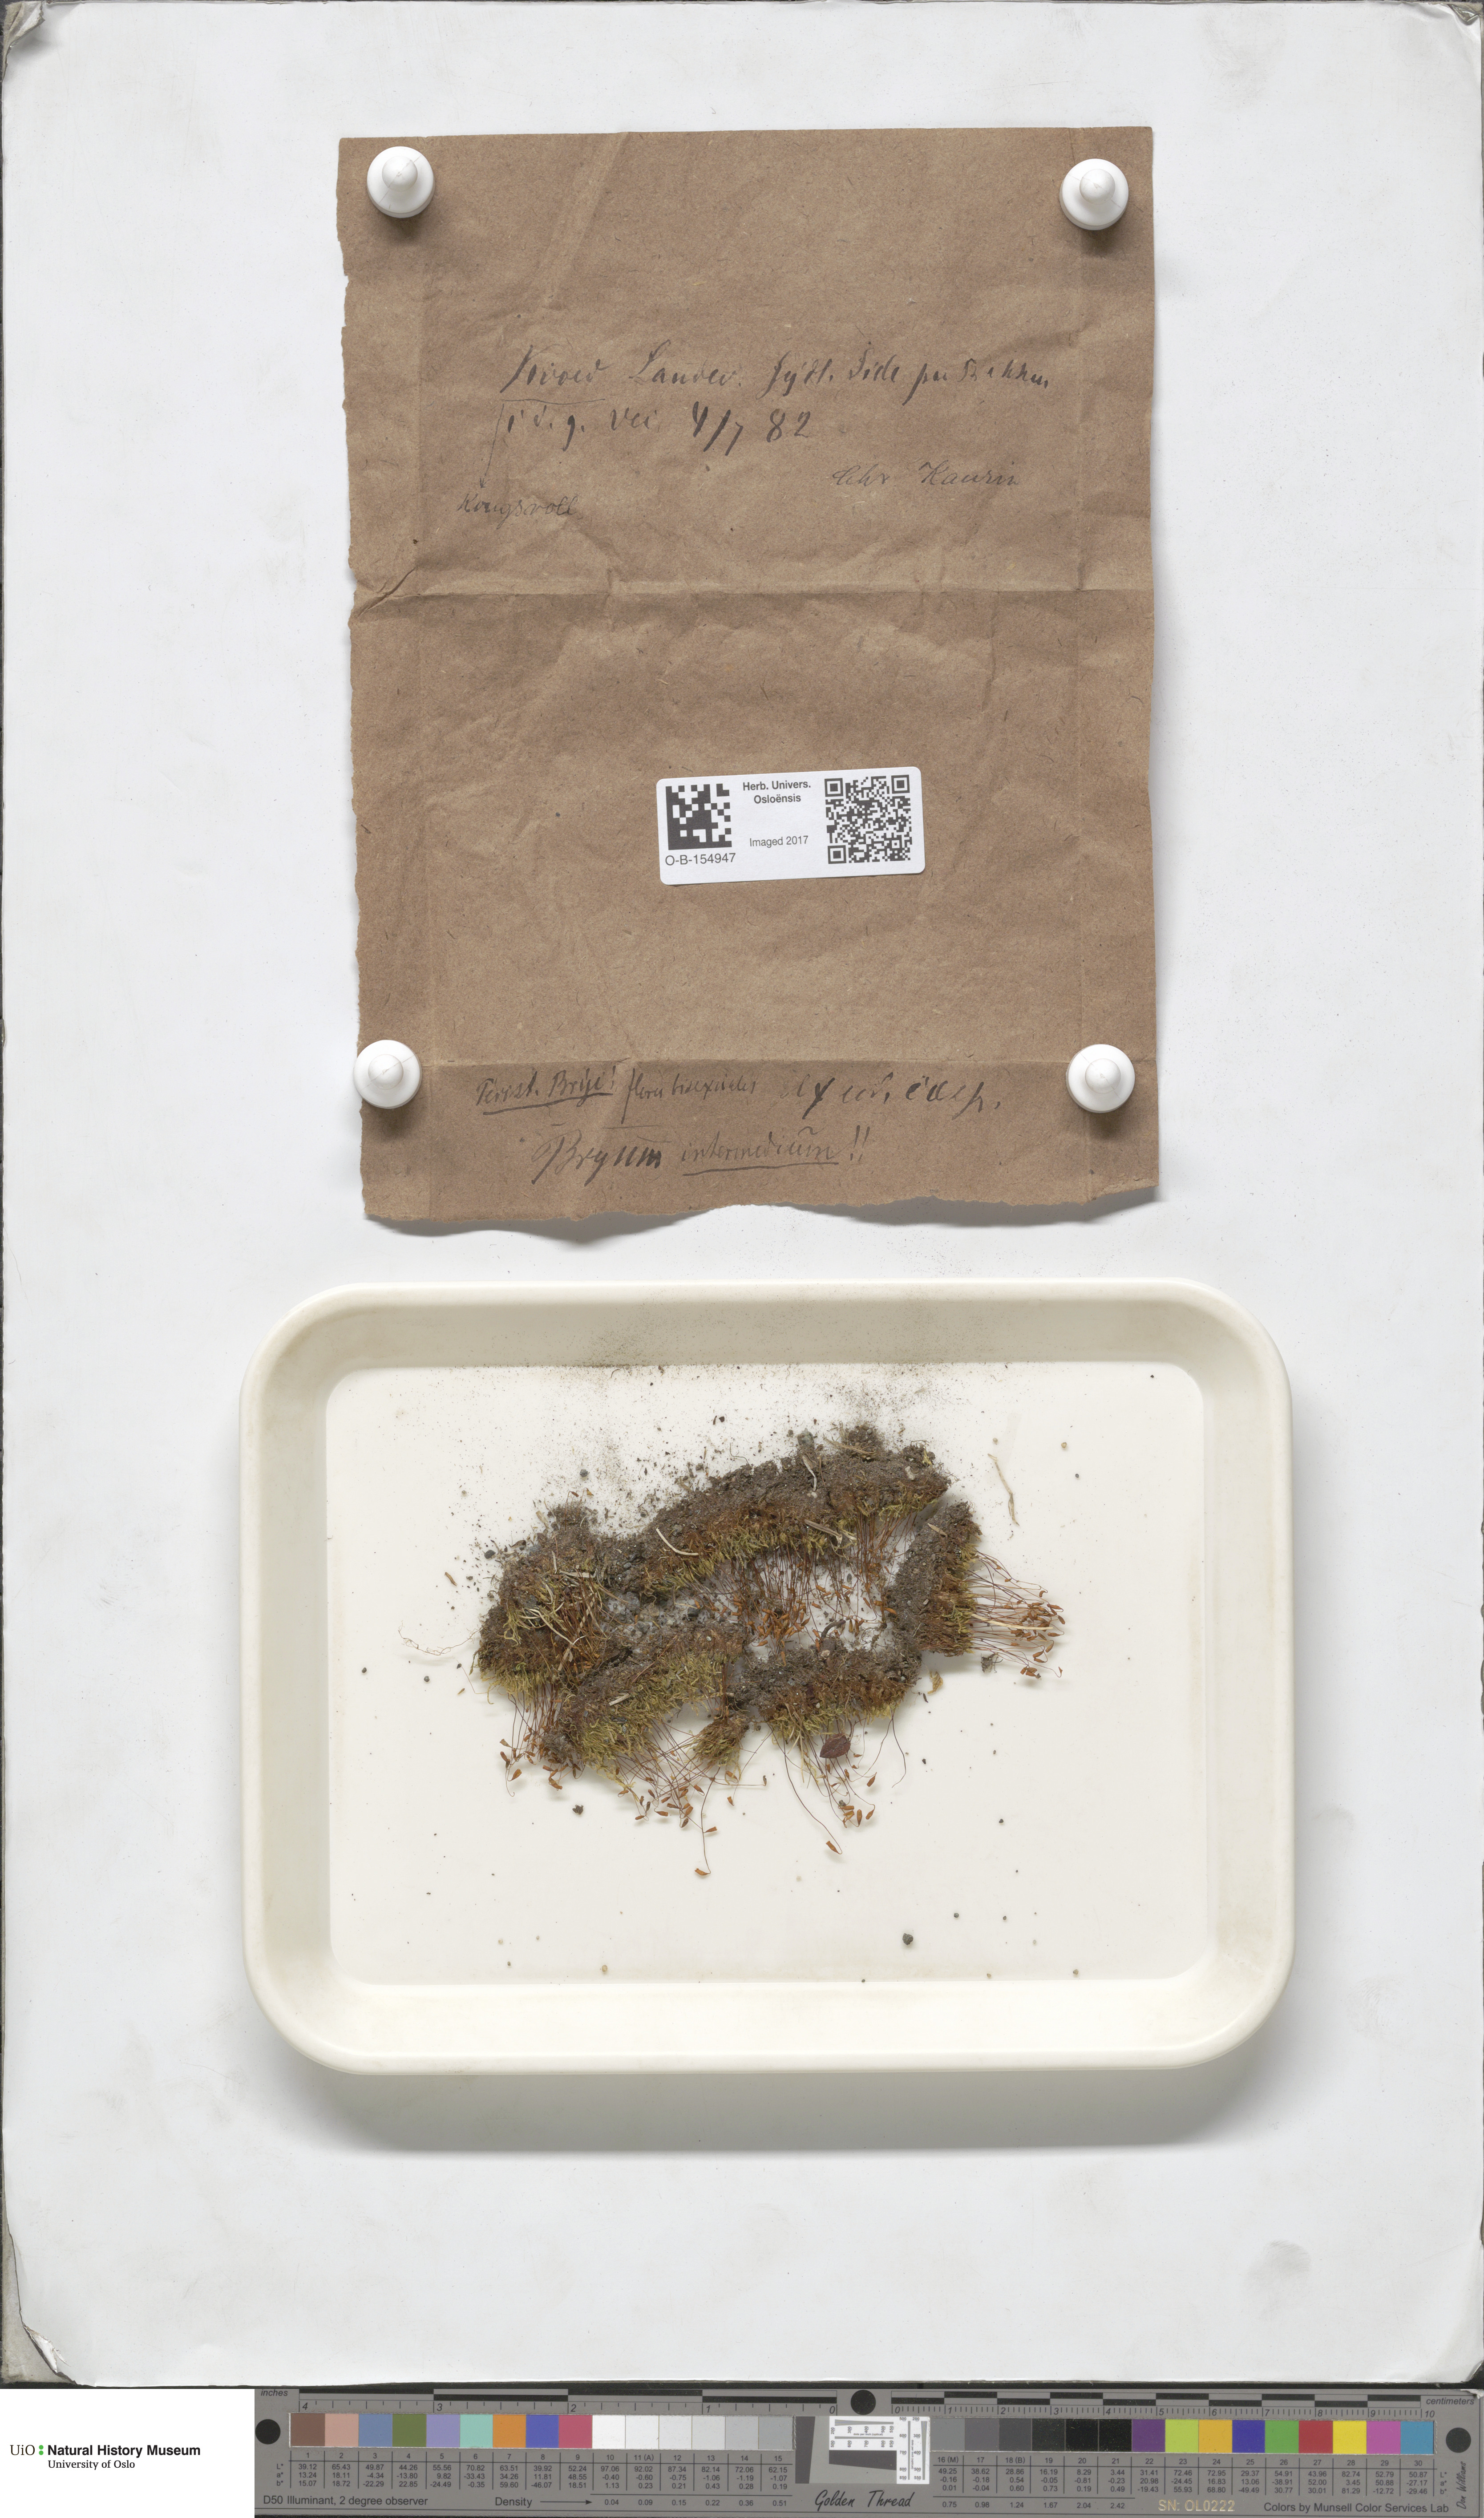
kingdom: Plantae
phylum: Bryophyta
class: Bryopsida
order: Bryales
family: Bryaceae
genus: Ptychostomum
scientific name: Ptychostomum intermedium
